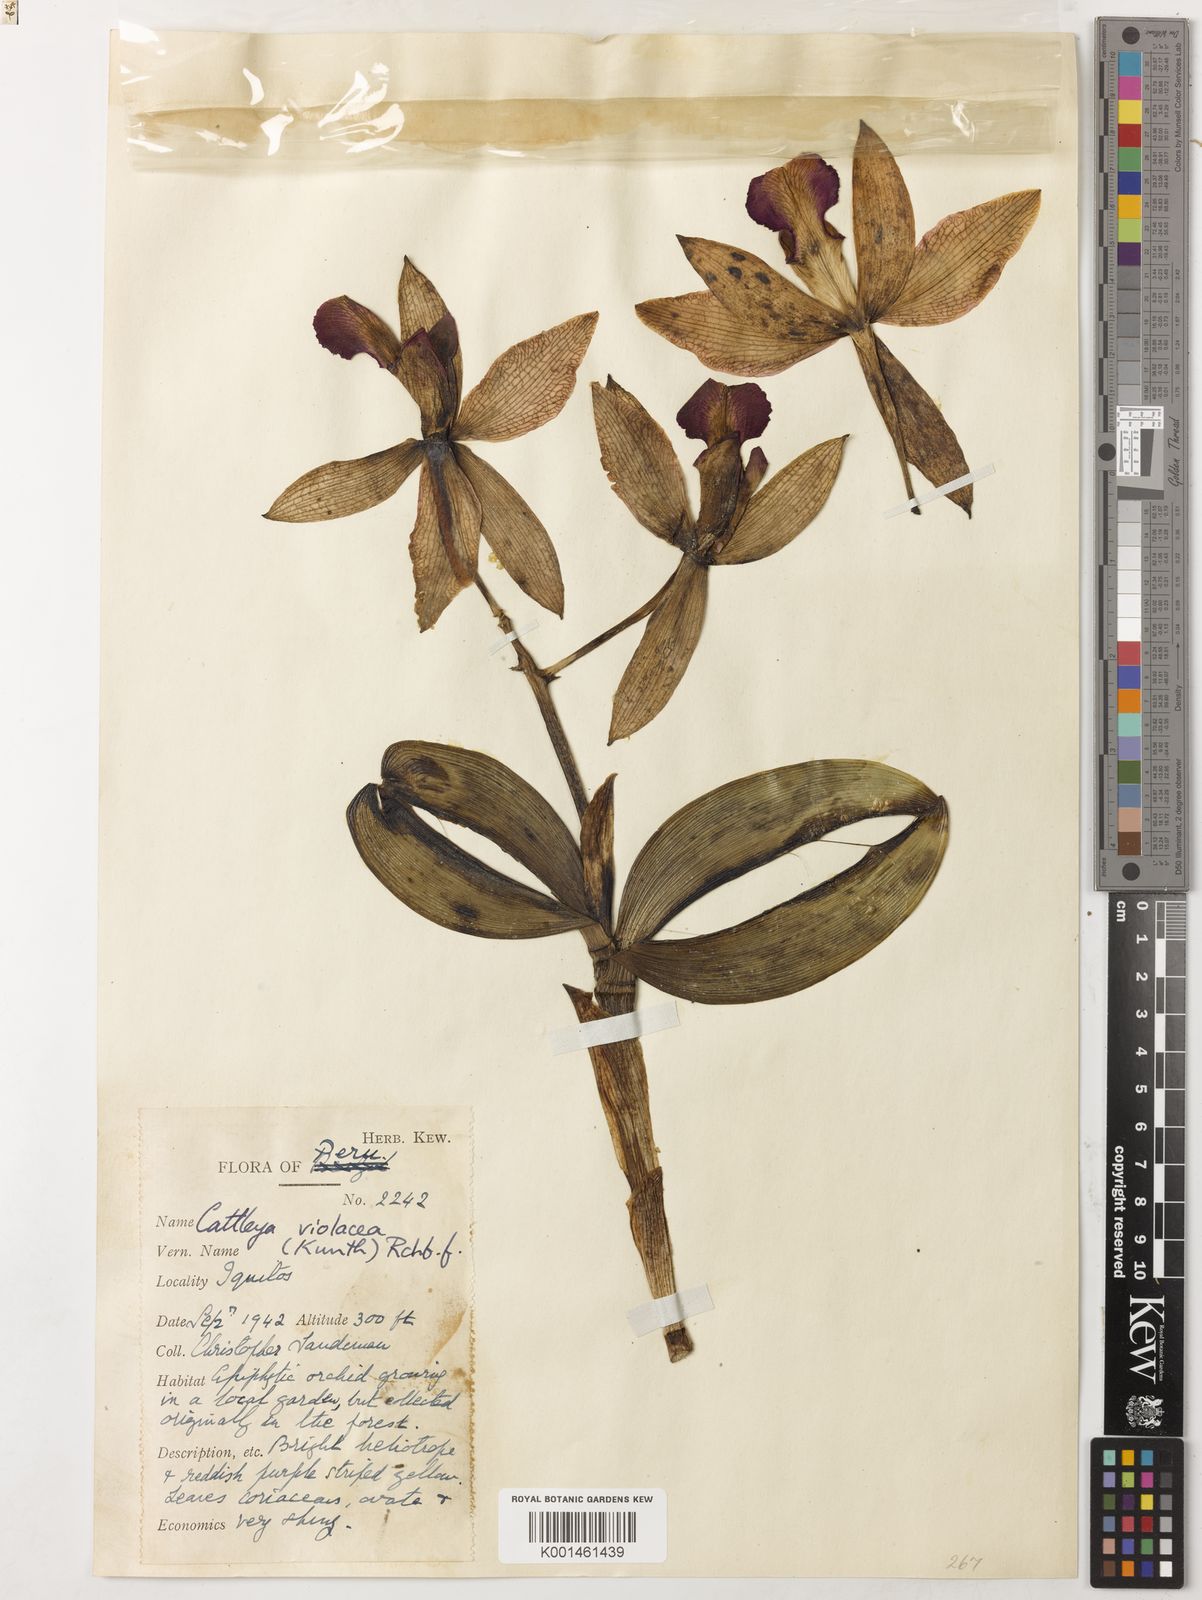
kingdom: Plantae
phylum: Tracheophyta
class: Liliopsida
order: Asparagales
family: Orchidaceae
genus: Cattleya
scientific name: Cattleya
